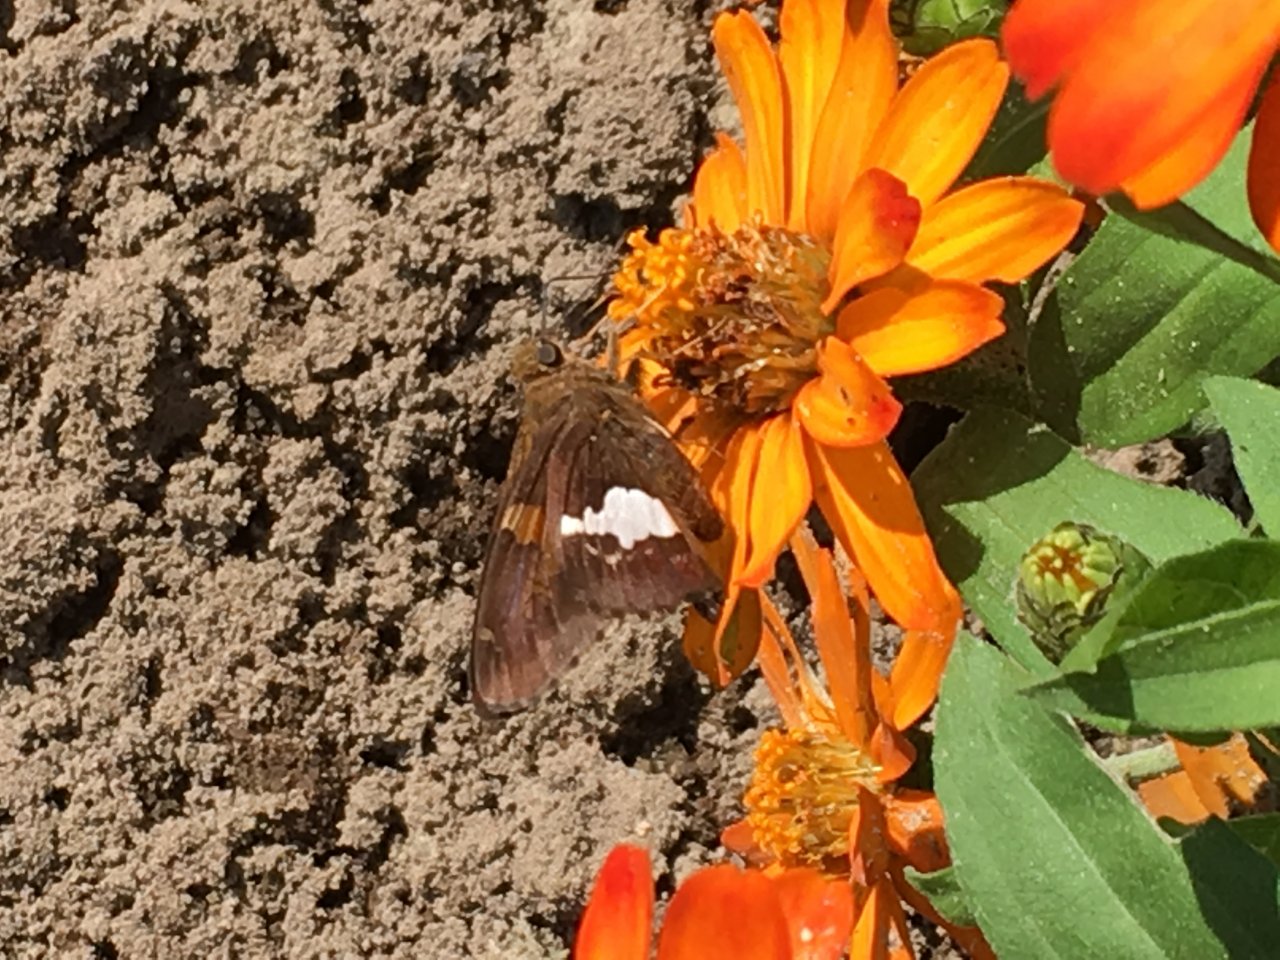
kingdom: Animalia
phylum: Arthropoda
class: Insecta
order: Lepidoptera
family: Hesperiidae
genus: Epargyreus
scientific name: Epargyreus clarus
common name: Silver-spotted Skipper
